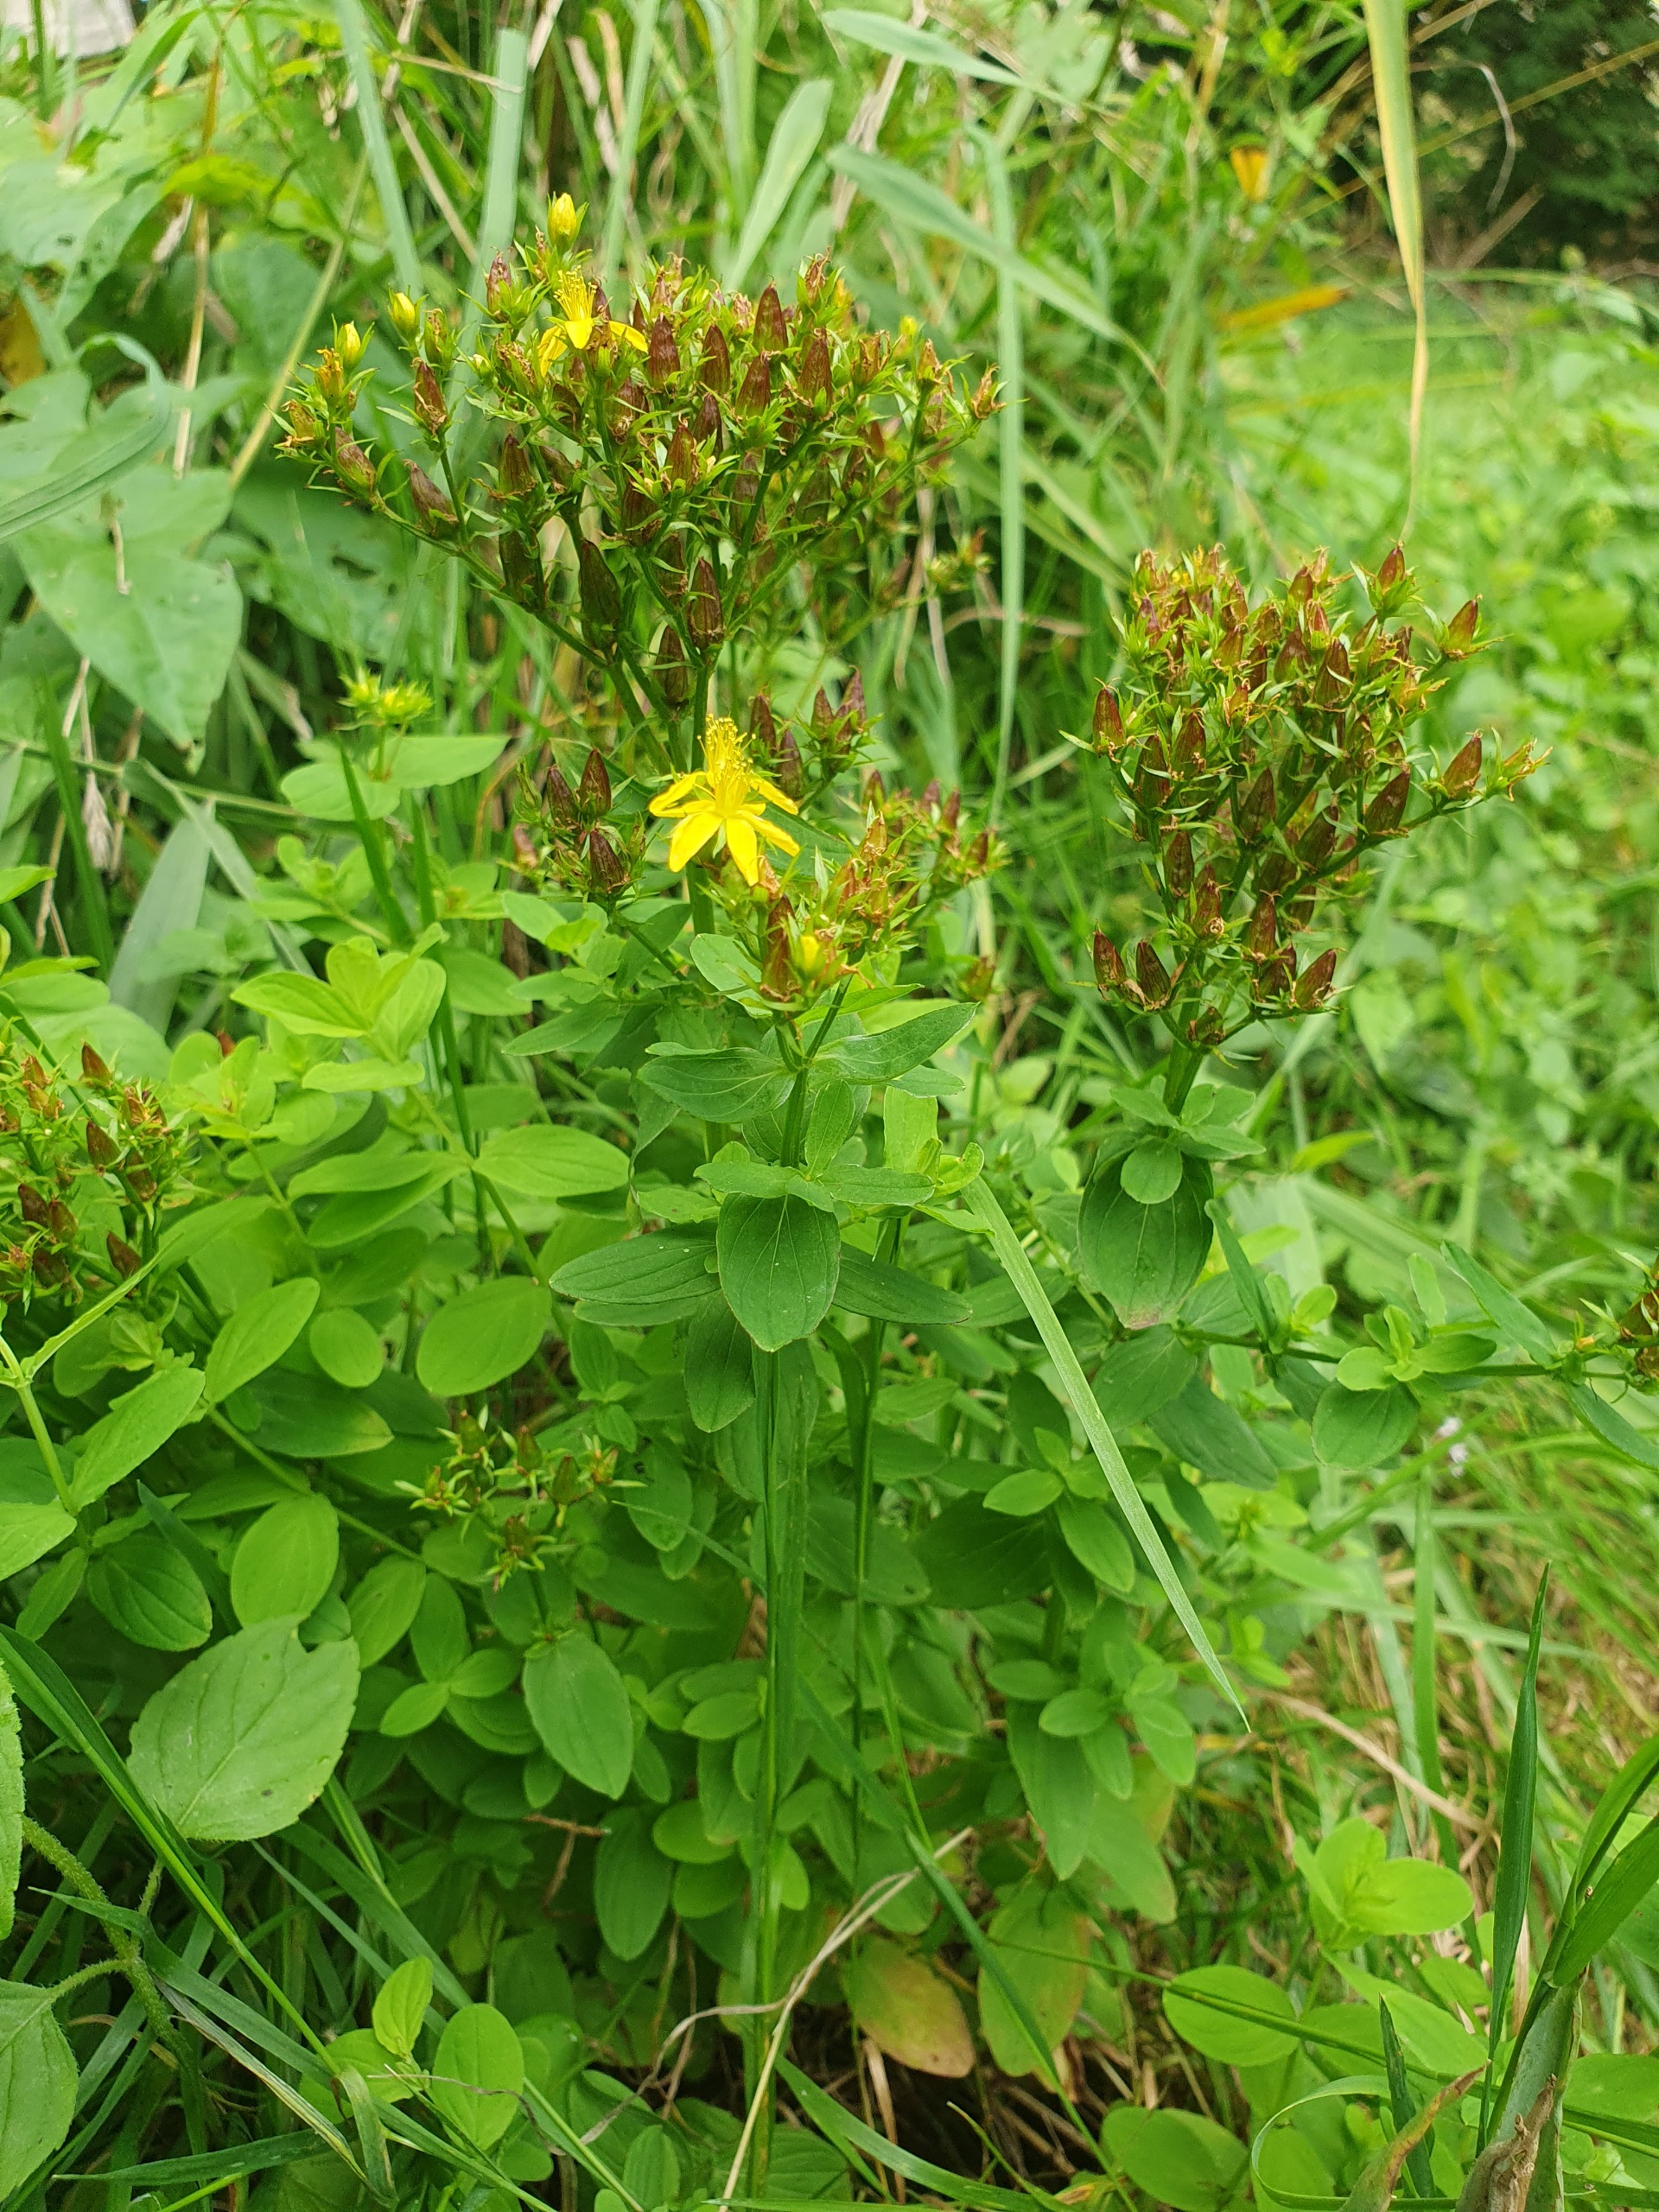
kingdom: Plantae
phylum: Tracheophyta
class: Magnoliopsida
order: Malpighiales
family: Hypericaceae
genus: Hypericum
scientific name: Hypericum tetrapterum
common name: Vinget perikon
